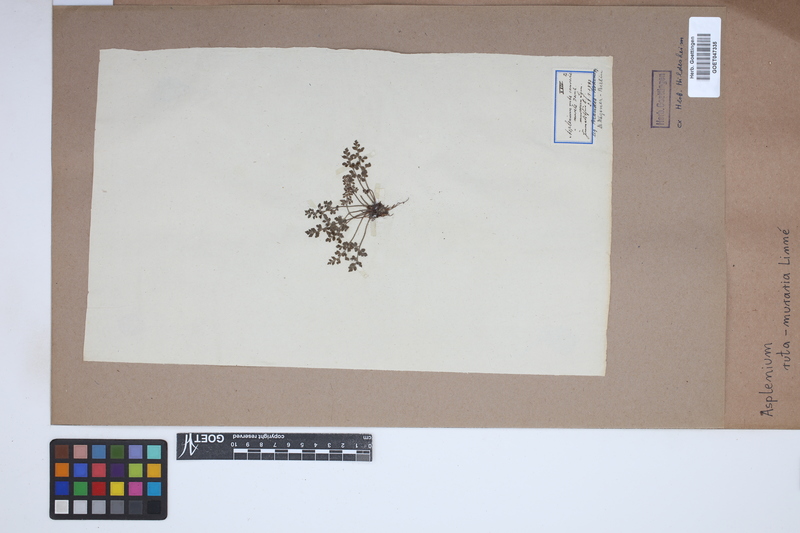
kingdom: Plantae
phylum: Tracheophyta
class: Polypodiopsida
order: Polypodiales
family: Aspleniaceae
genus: Asplenium
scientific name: Asplenium ruta-muraria
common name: Wall-rue
